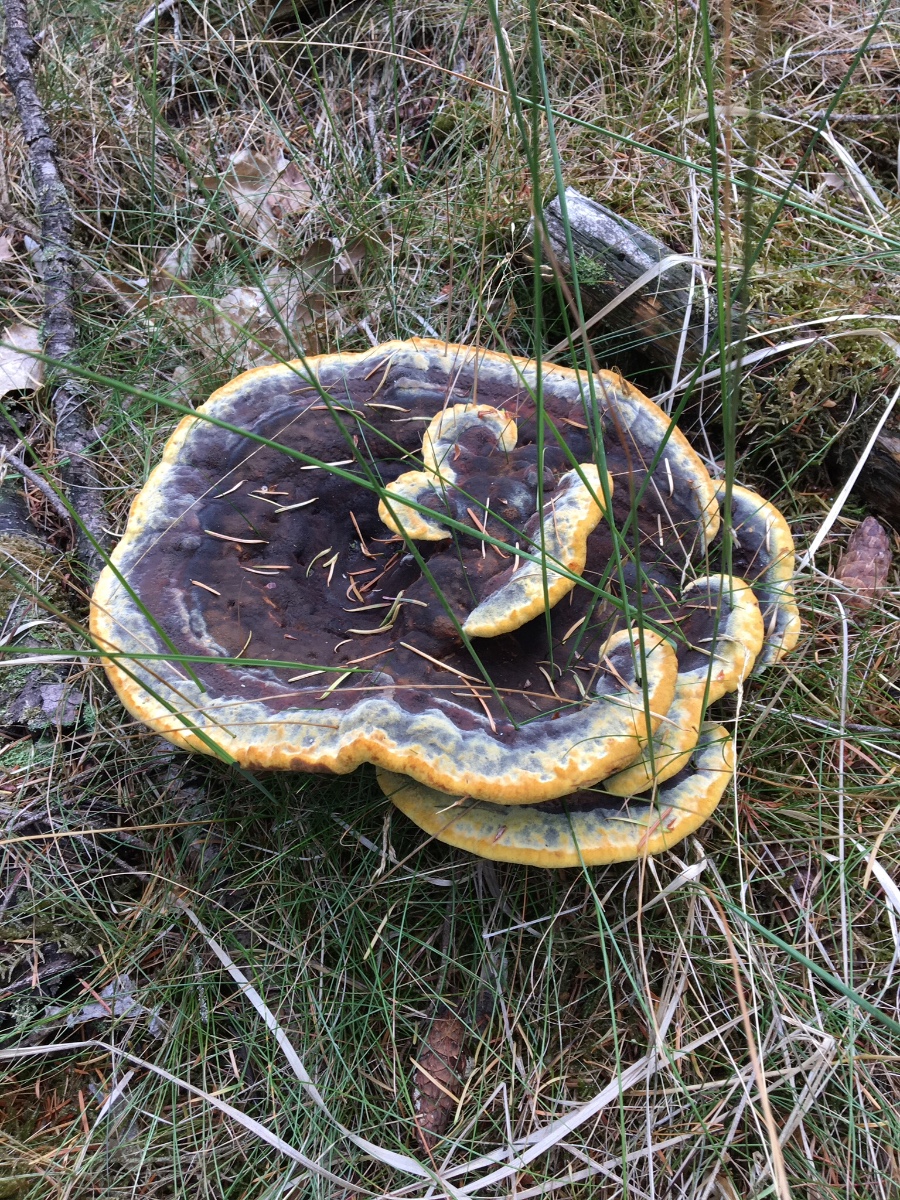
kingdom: Fungi
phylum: Basidiomycota
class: Agaricomycetes
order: Polyporales
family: Laetiporaceae
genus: Phaeolus
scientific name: Phaeolus
